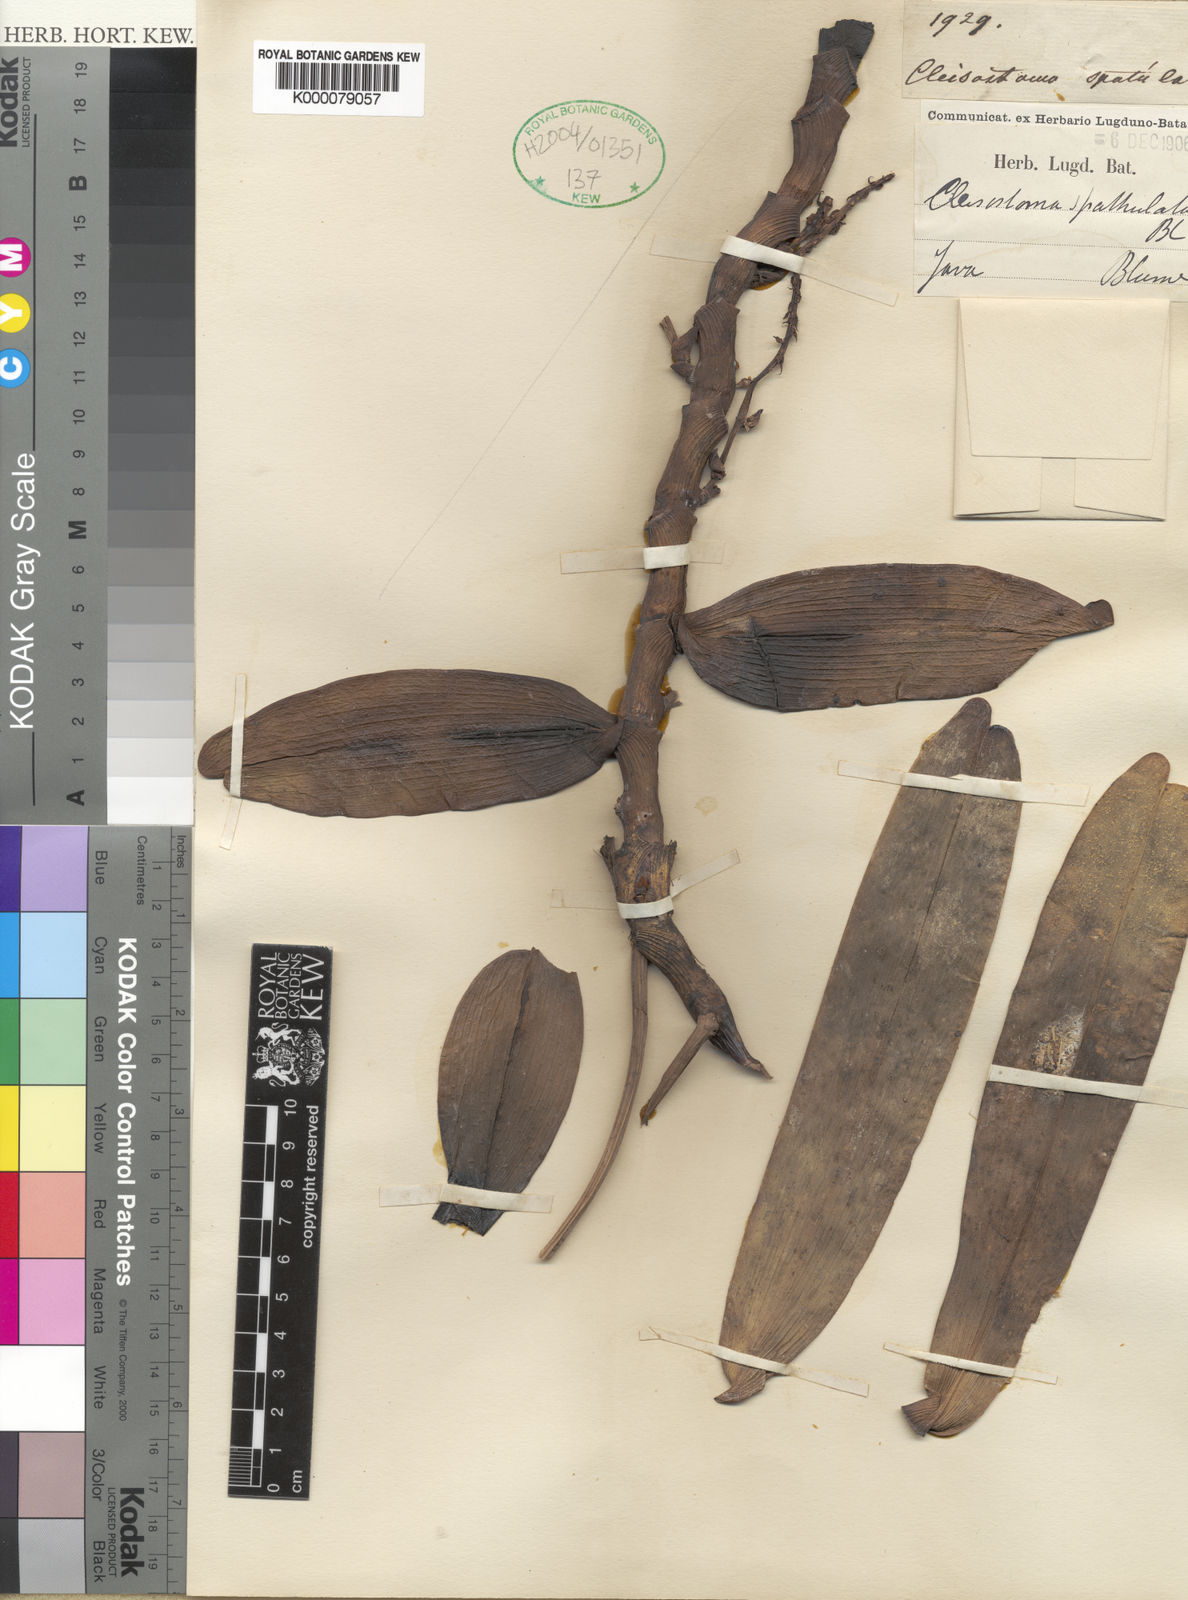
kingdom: Plantae
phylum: Tracheophyta
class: Liliopsida
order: Asparagales
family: Orchidaceae
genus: Robiquetia
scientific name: Robiquetia spathulata
